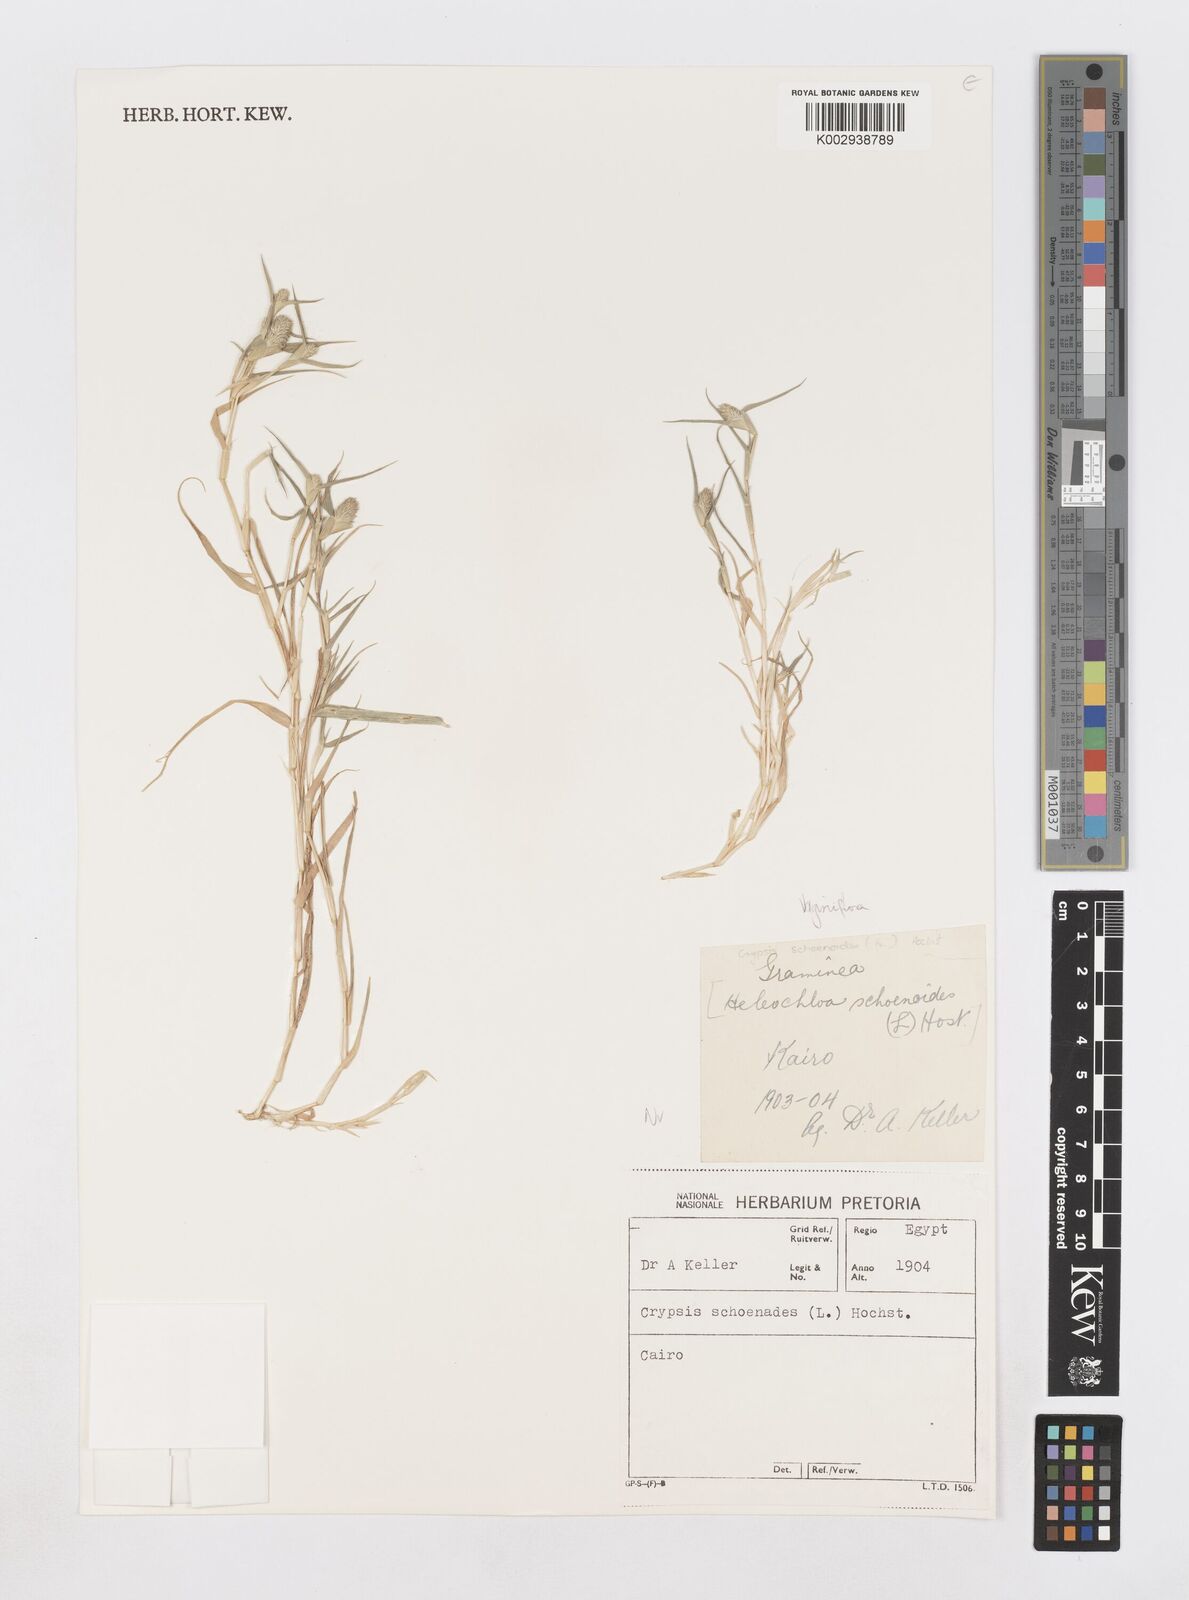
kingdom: Plantae
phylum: Tracheophyta
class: Liliopsida
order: Poales
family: Poaceae
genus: Sporobolus
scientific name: Sporobolus niliacus
